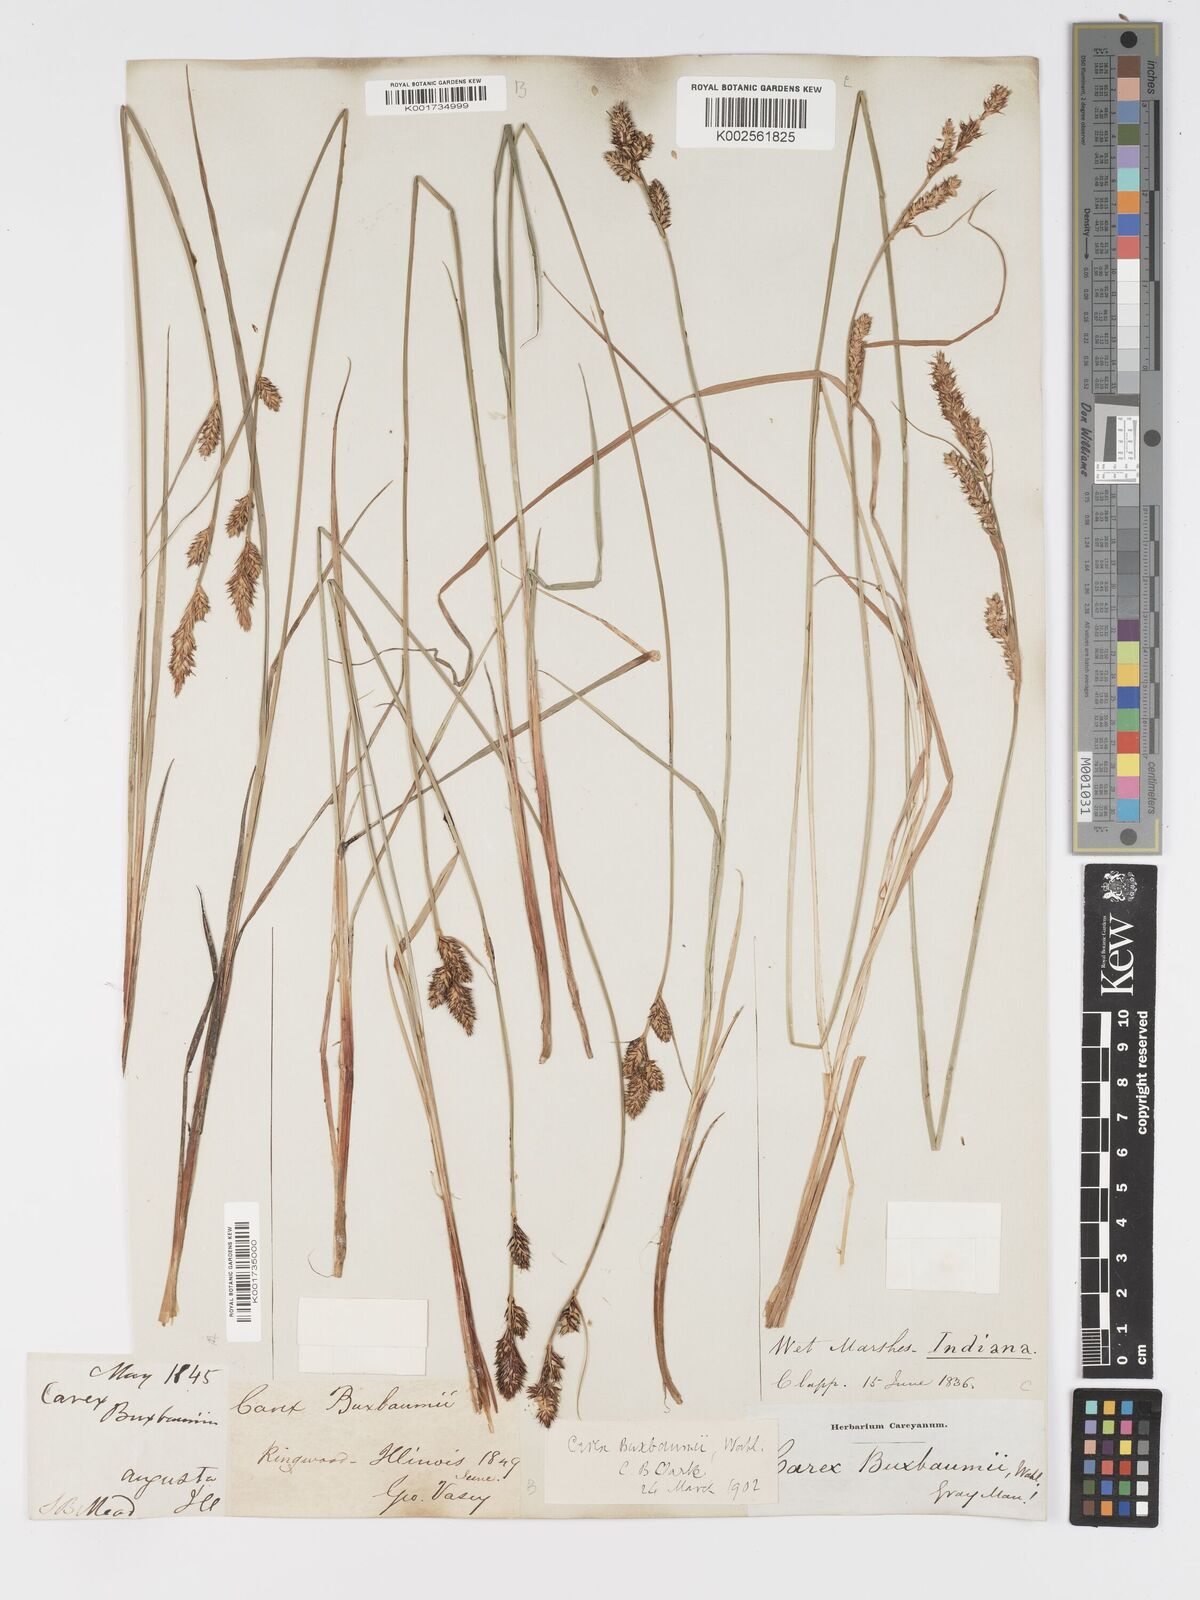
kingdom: Plantae
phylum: Tracheophyta
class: Liliopsida
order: Poales
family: Cyperaceae
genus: Carex
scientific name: Carex buxbaumii
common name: Club sedge
